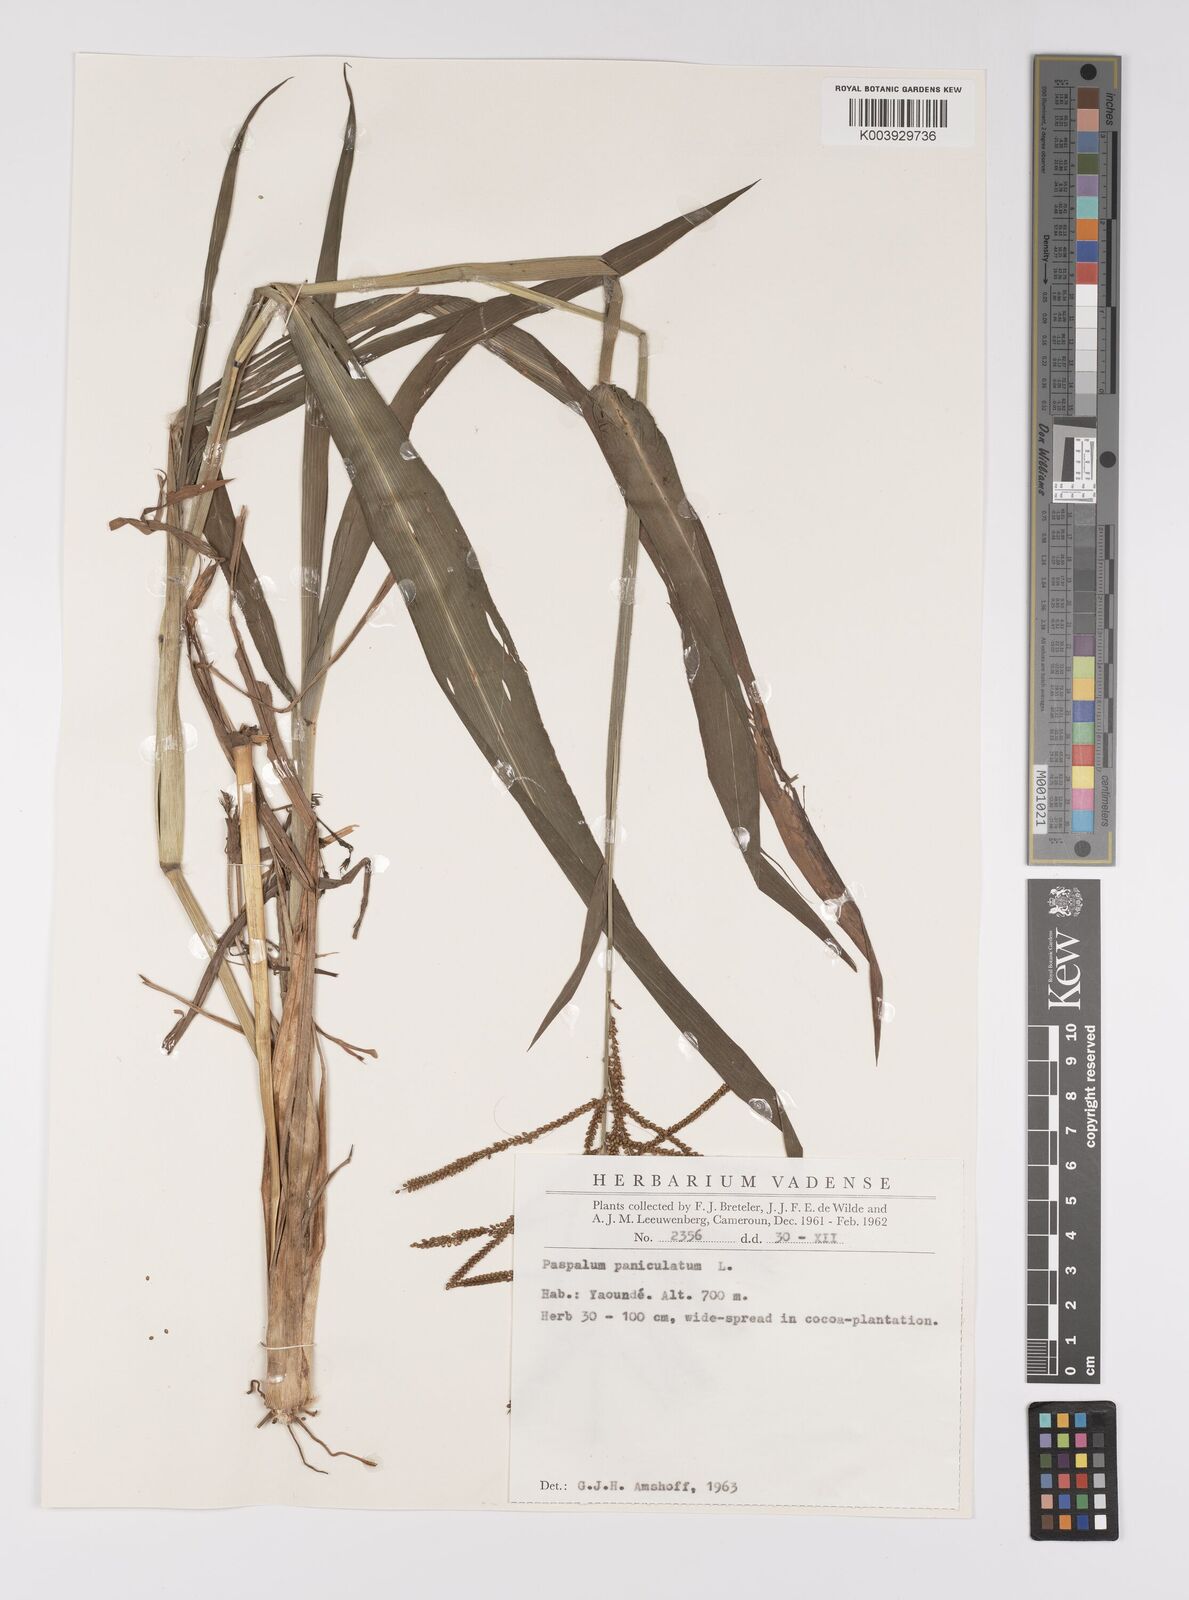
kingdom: Plantae
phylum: Tracheophyta
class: Liliopsida
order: Poales
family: Poaceae
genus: Paspalum
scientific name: Paspalum paniculatum
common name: Arrocillo
